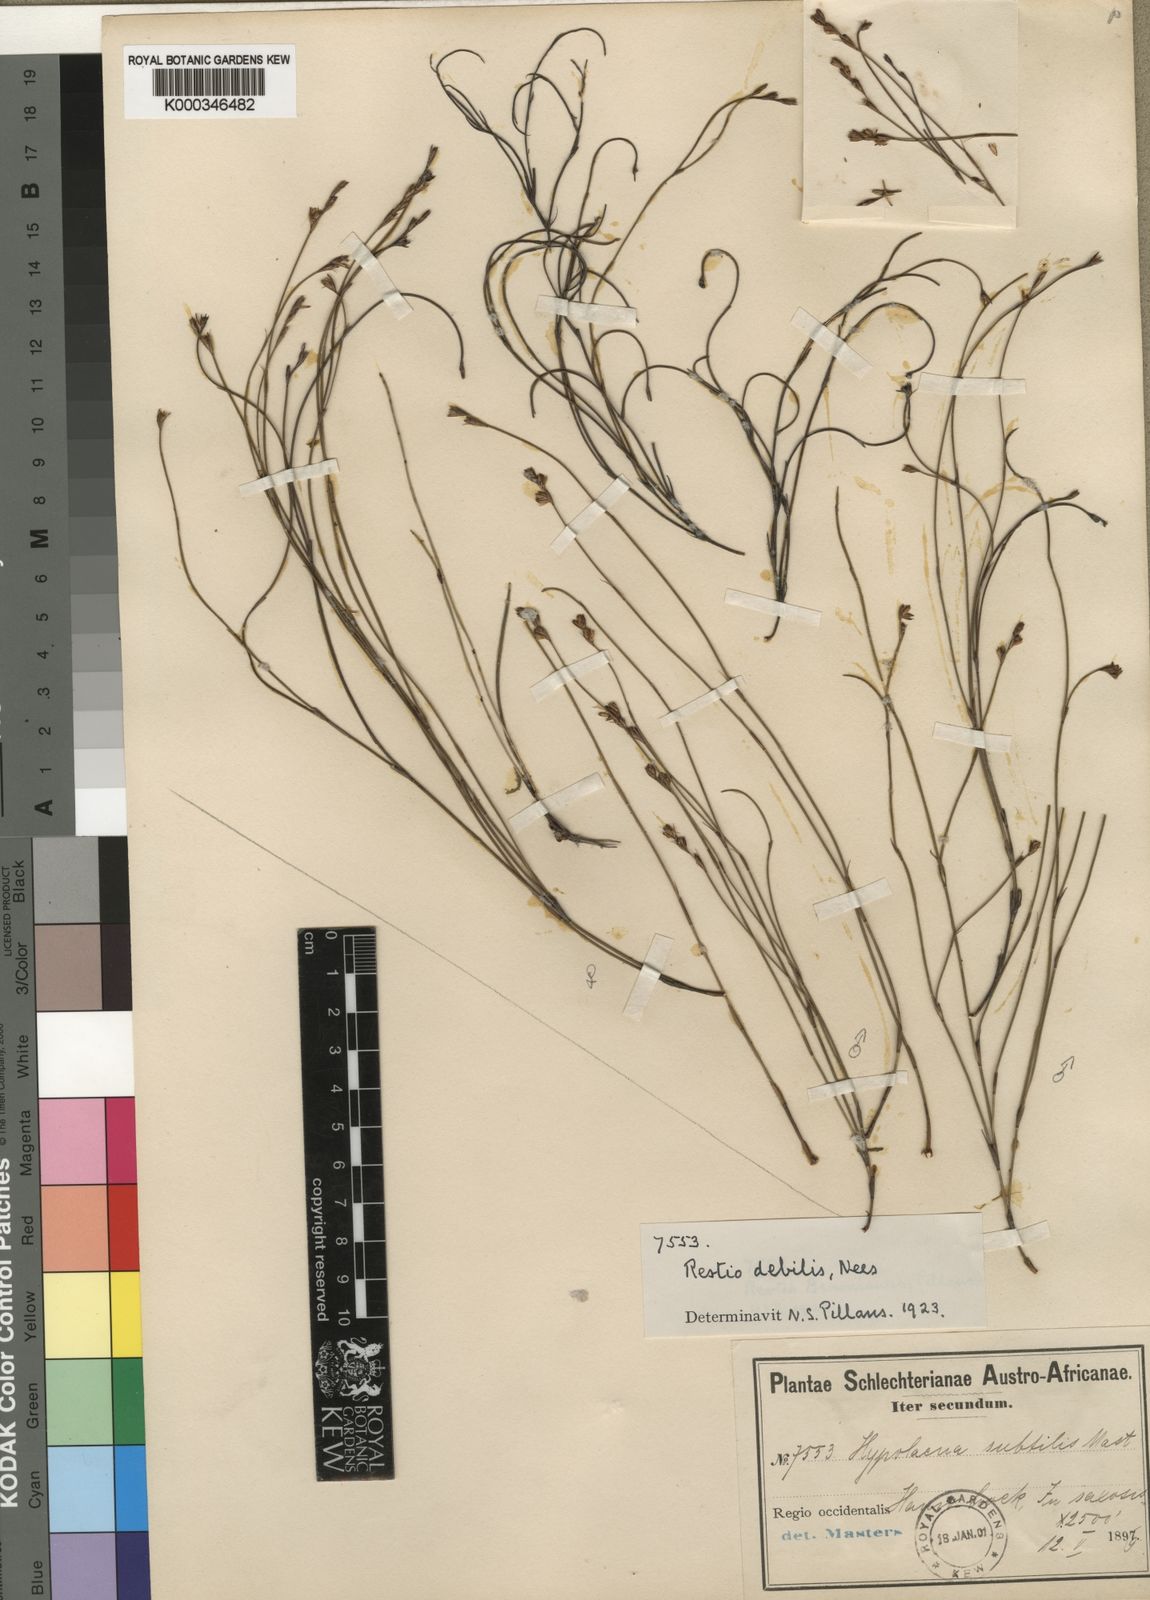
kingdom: Plantae
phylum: Tracheophyta
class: Liliopsida
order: Poales
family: Restionaceae
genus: Restio
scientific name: Restio debilis
